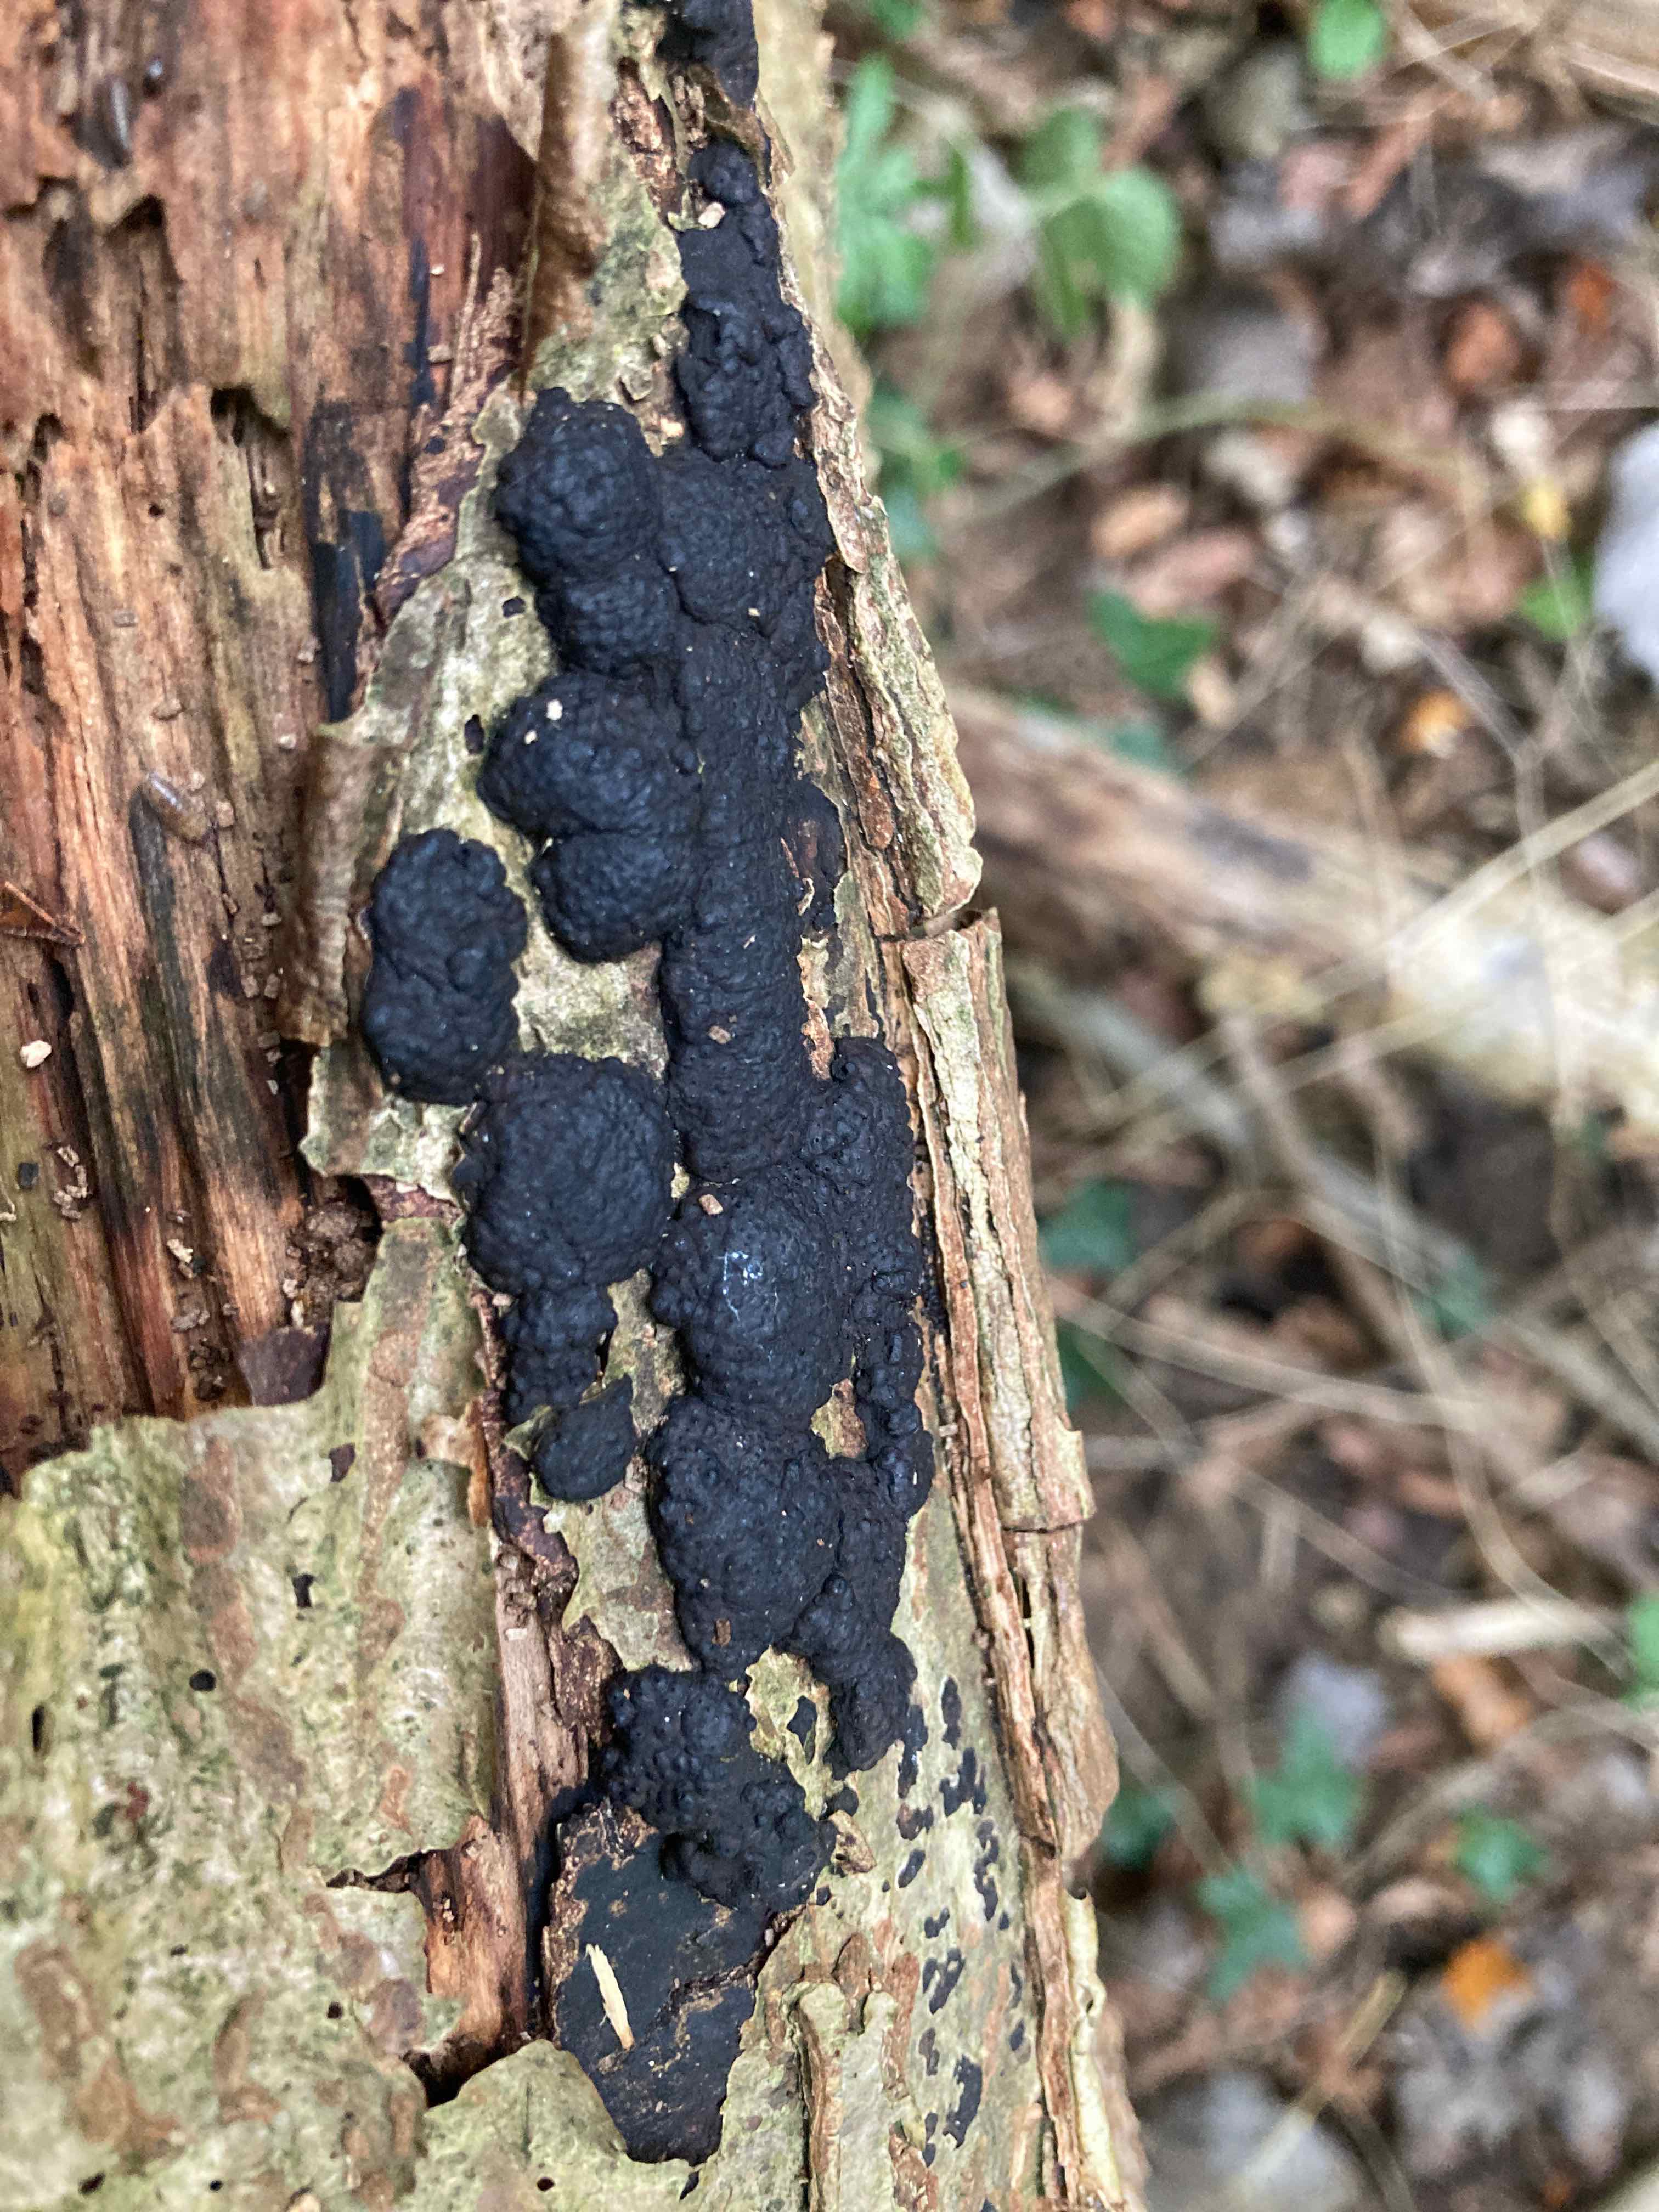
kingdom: Fungi
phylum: Ascomycota
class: Sordariomycetes
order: Xylariales
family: Hypoxylaceae
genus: Jackrogersella
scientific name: Jackrogersella multiformis
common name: foranderlig kulbær
